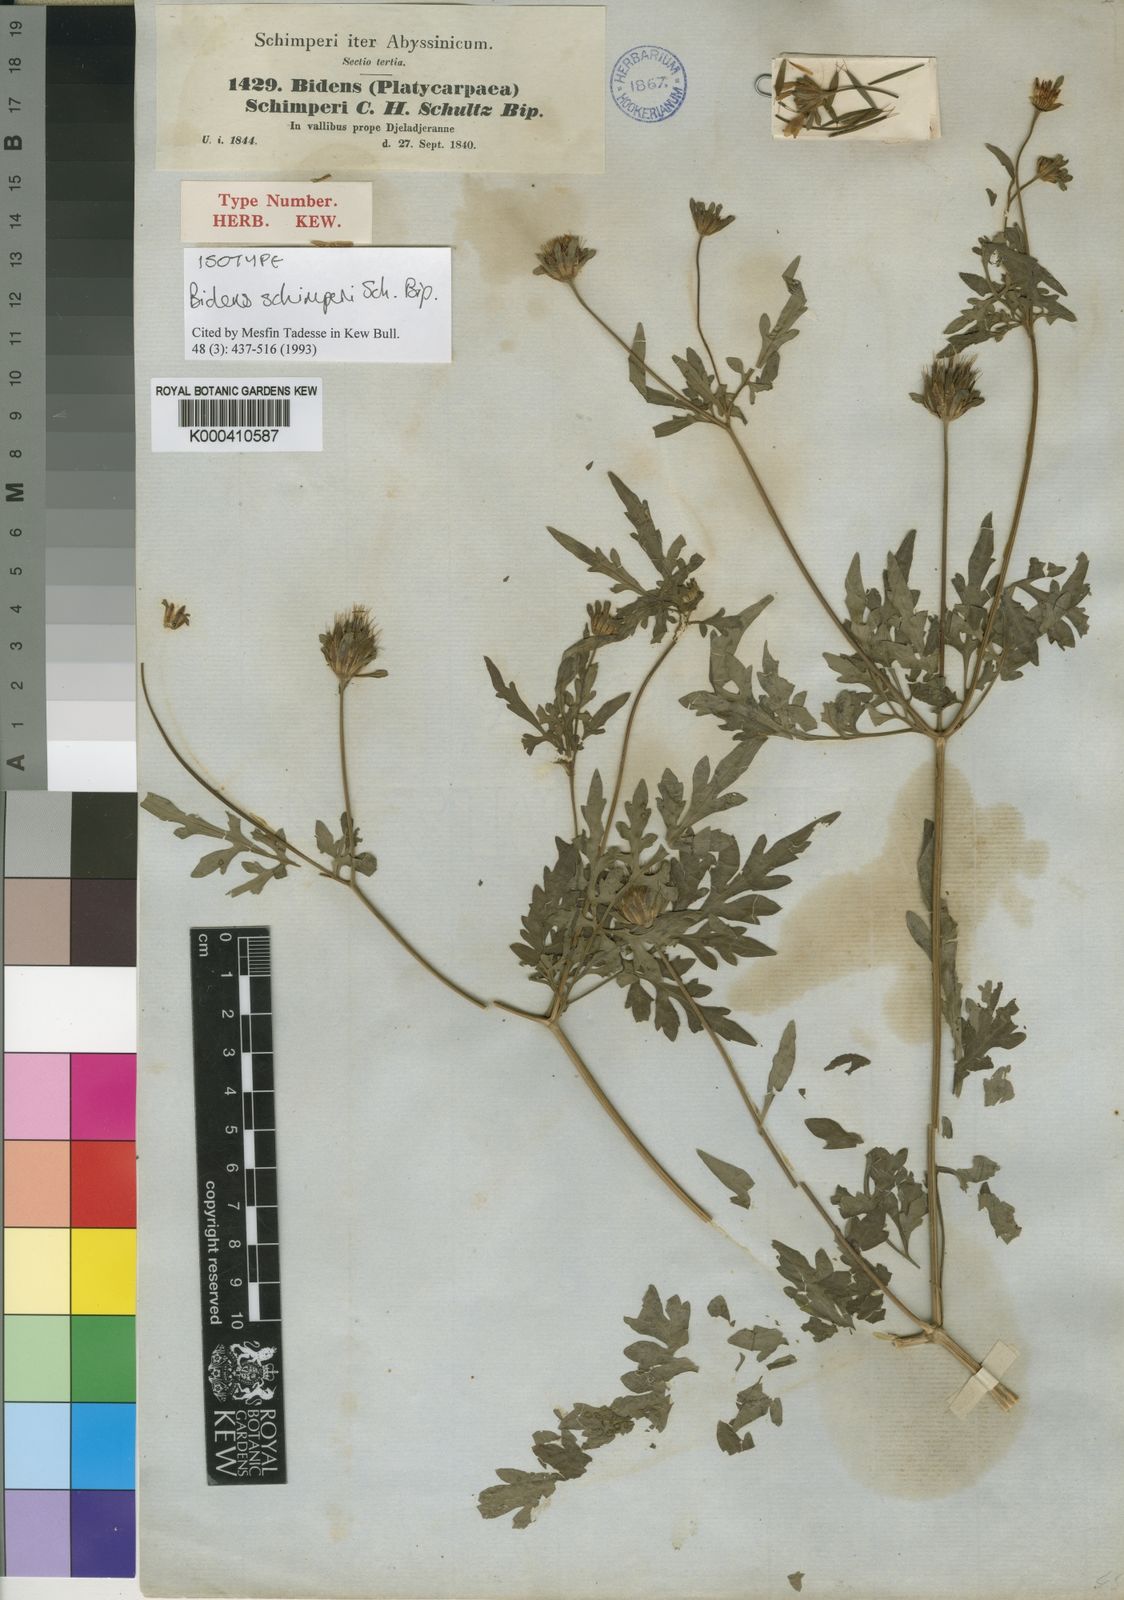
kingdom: Plantae
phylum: Tracheophyta
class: Magnoliopsida
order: Asterales
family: Asteraceae
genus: Bidens
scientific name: Bidens schimperi
